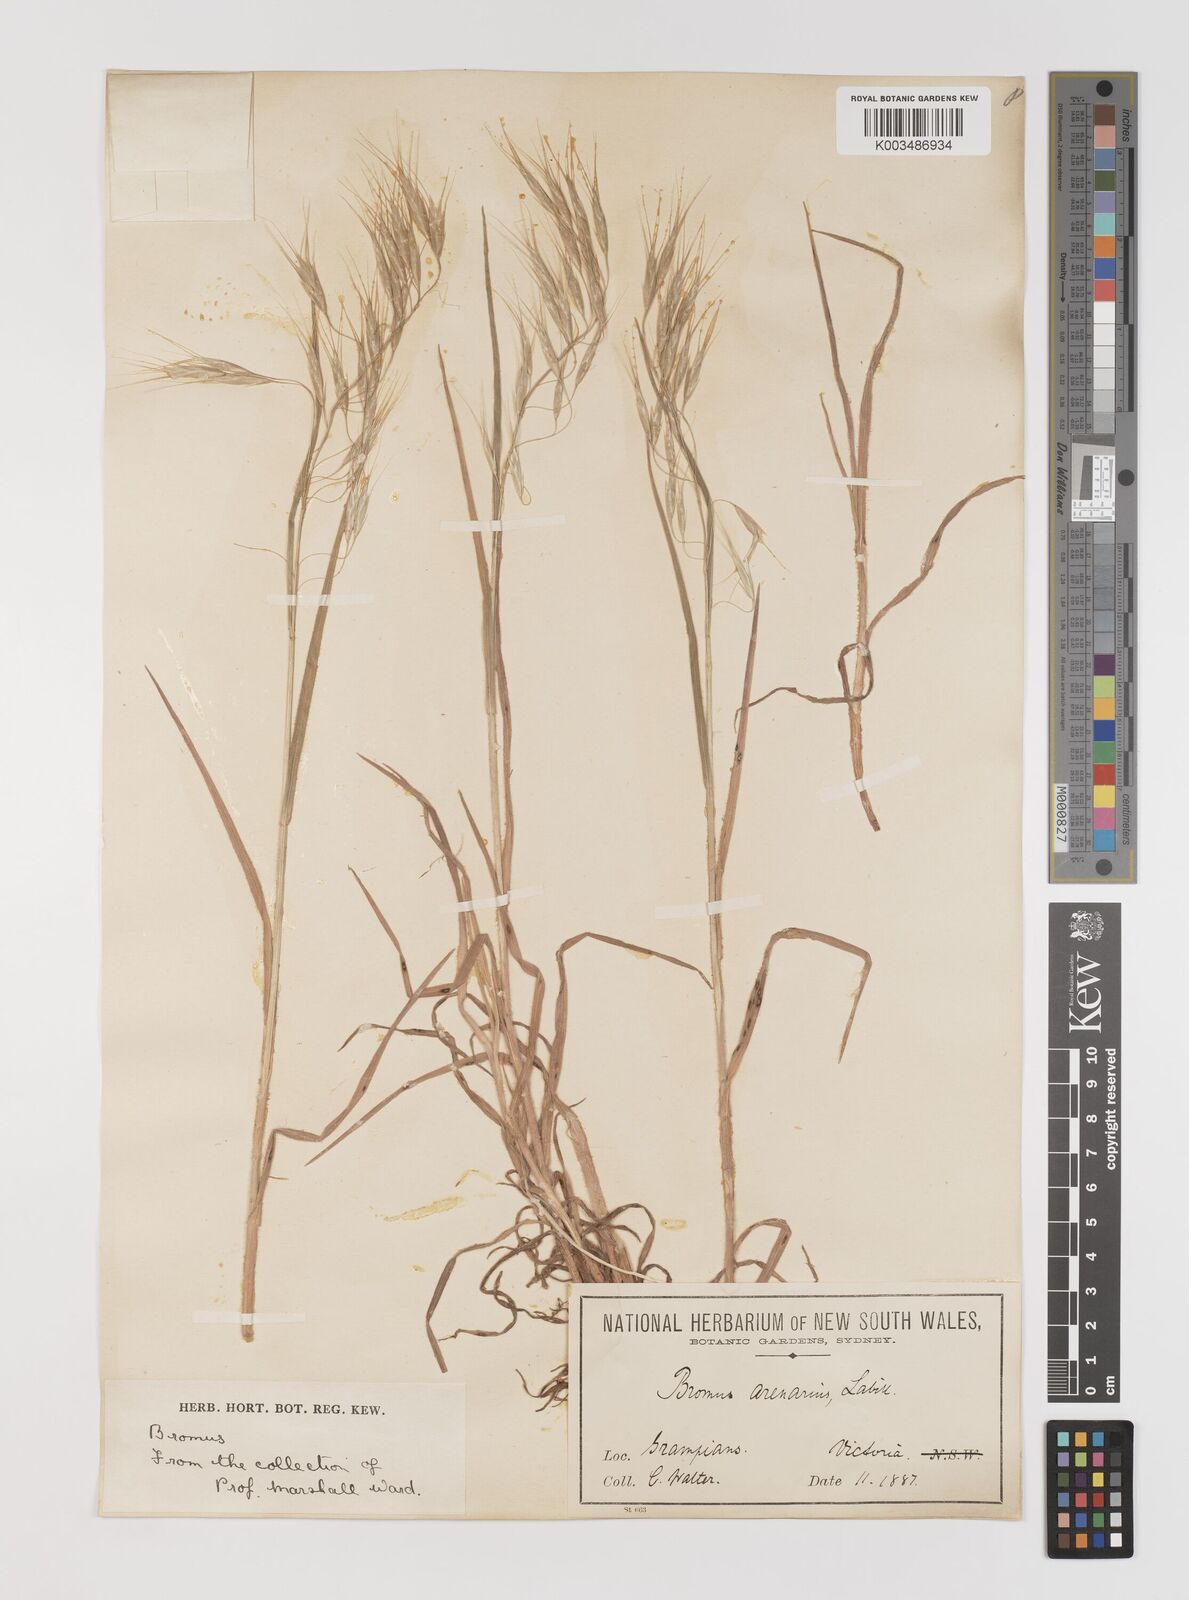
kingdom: Plantae
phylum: Tracheophyta
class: Liliopsida
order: Poales
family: Poaceae
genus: Bromus
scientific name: Bromus arenarius
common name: Australian brome
